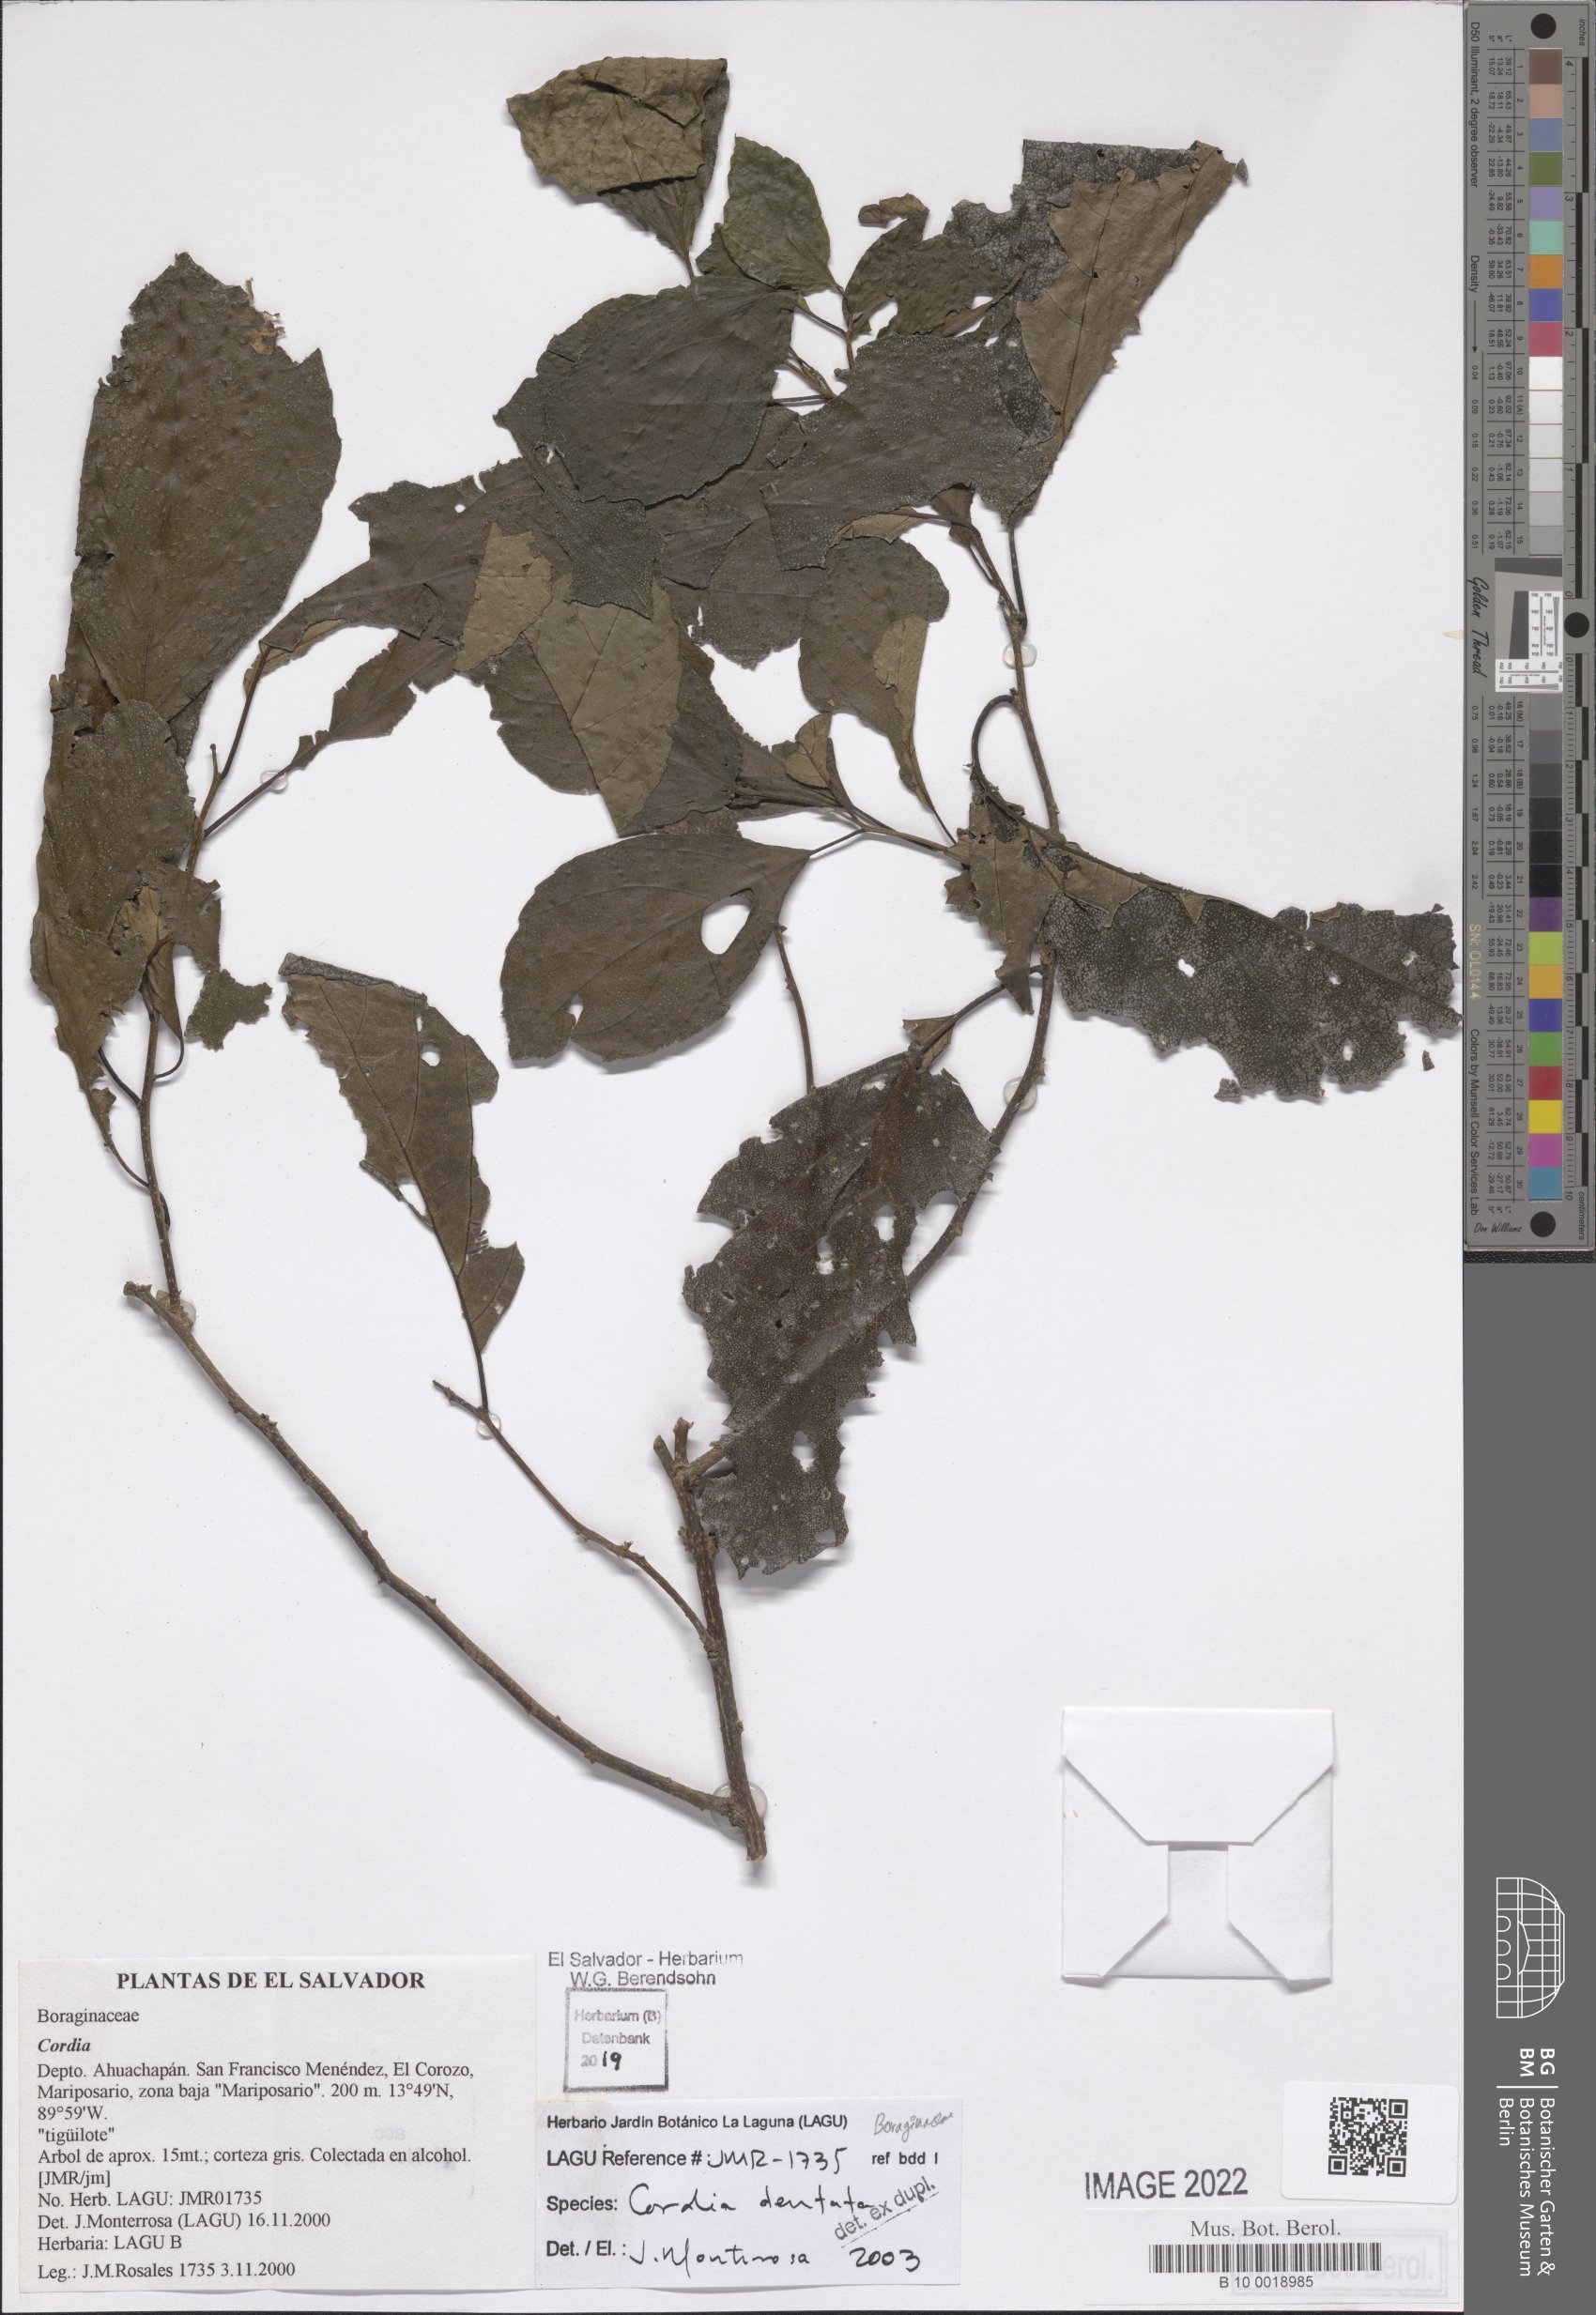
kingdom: Plantae
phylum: Tracheophyta
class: Magnoliopsida
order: Boraginales
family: Cordiaceae
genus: Cordia
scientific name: Cordia dentata
